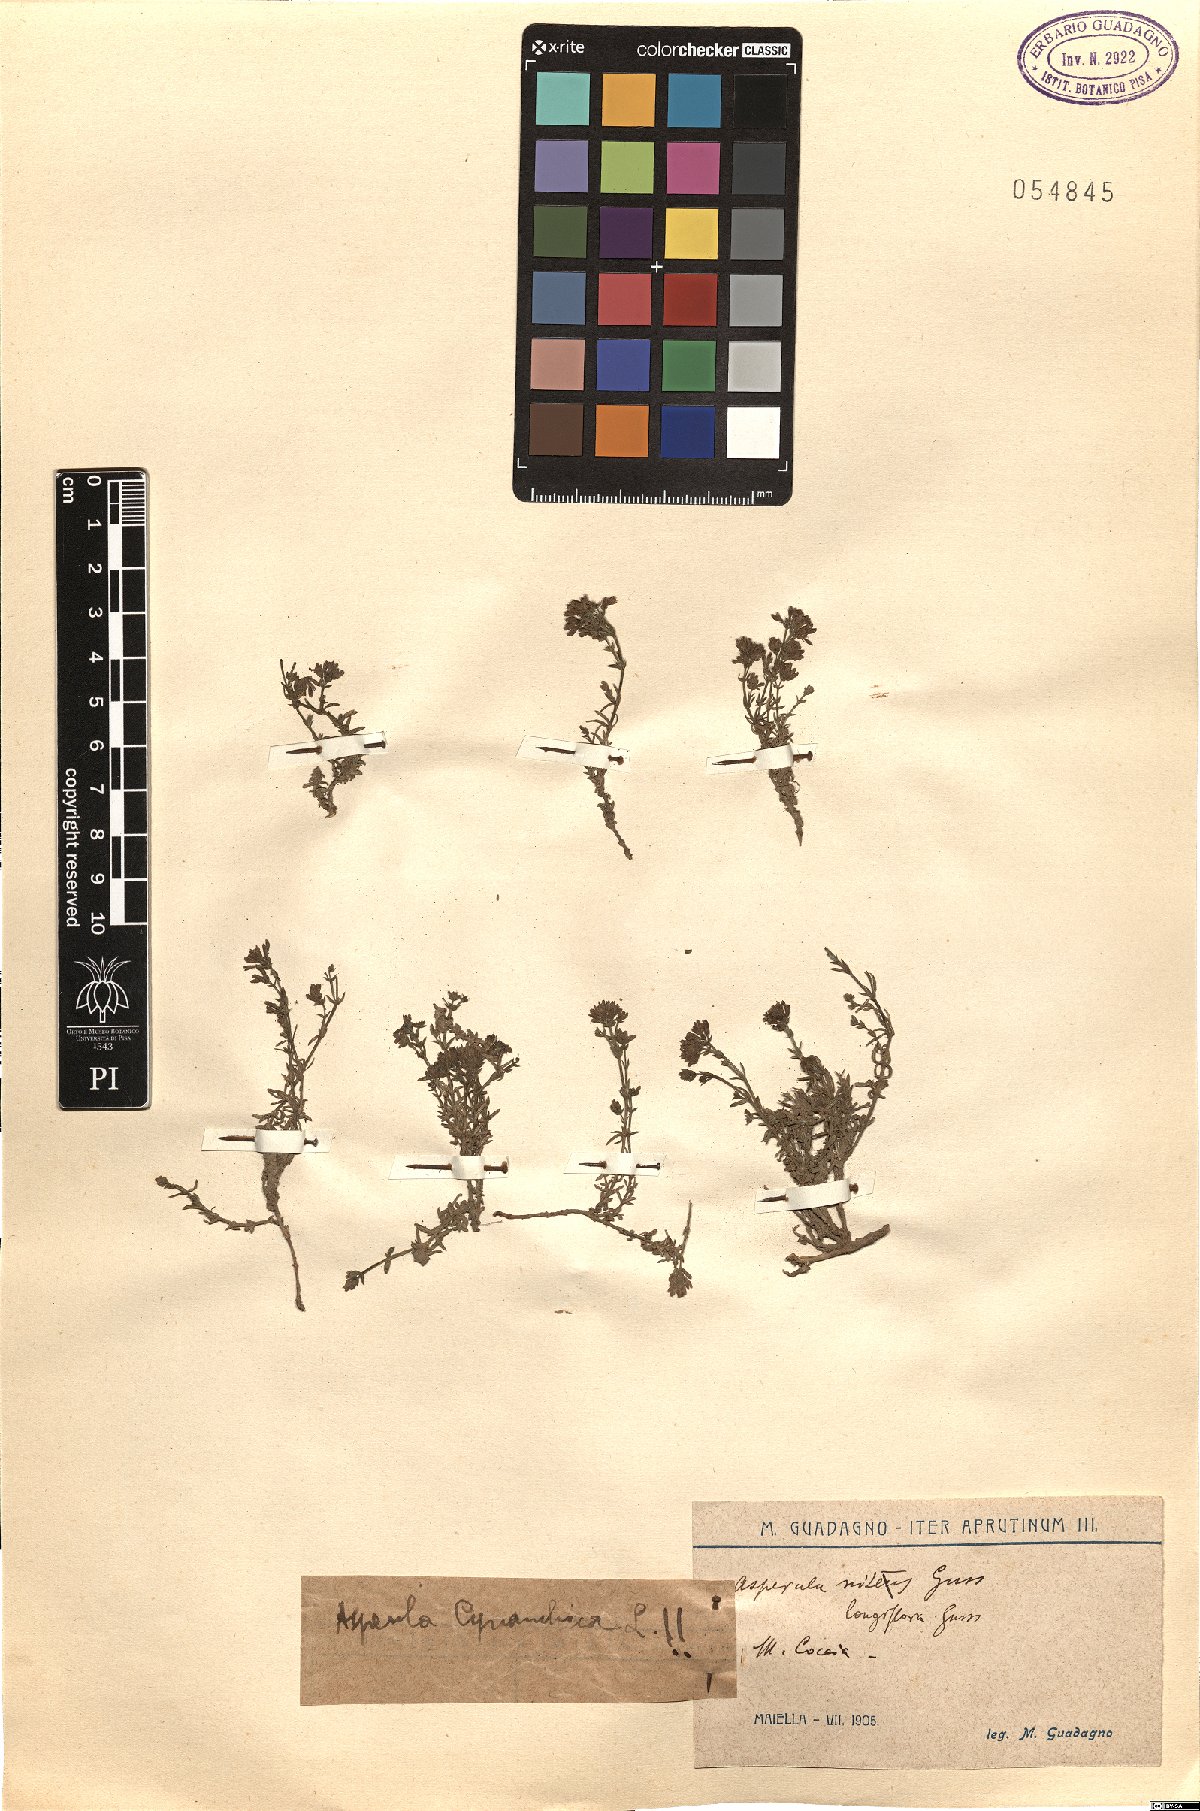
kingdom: Plantae
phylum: Tracheophyta
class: Magnoliopsida
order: Gentianales
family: Rubiaceae
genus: Cynanchica
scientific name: Cynanchica pyrenaica
